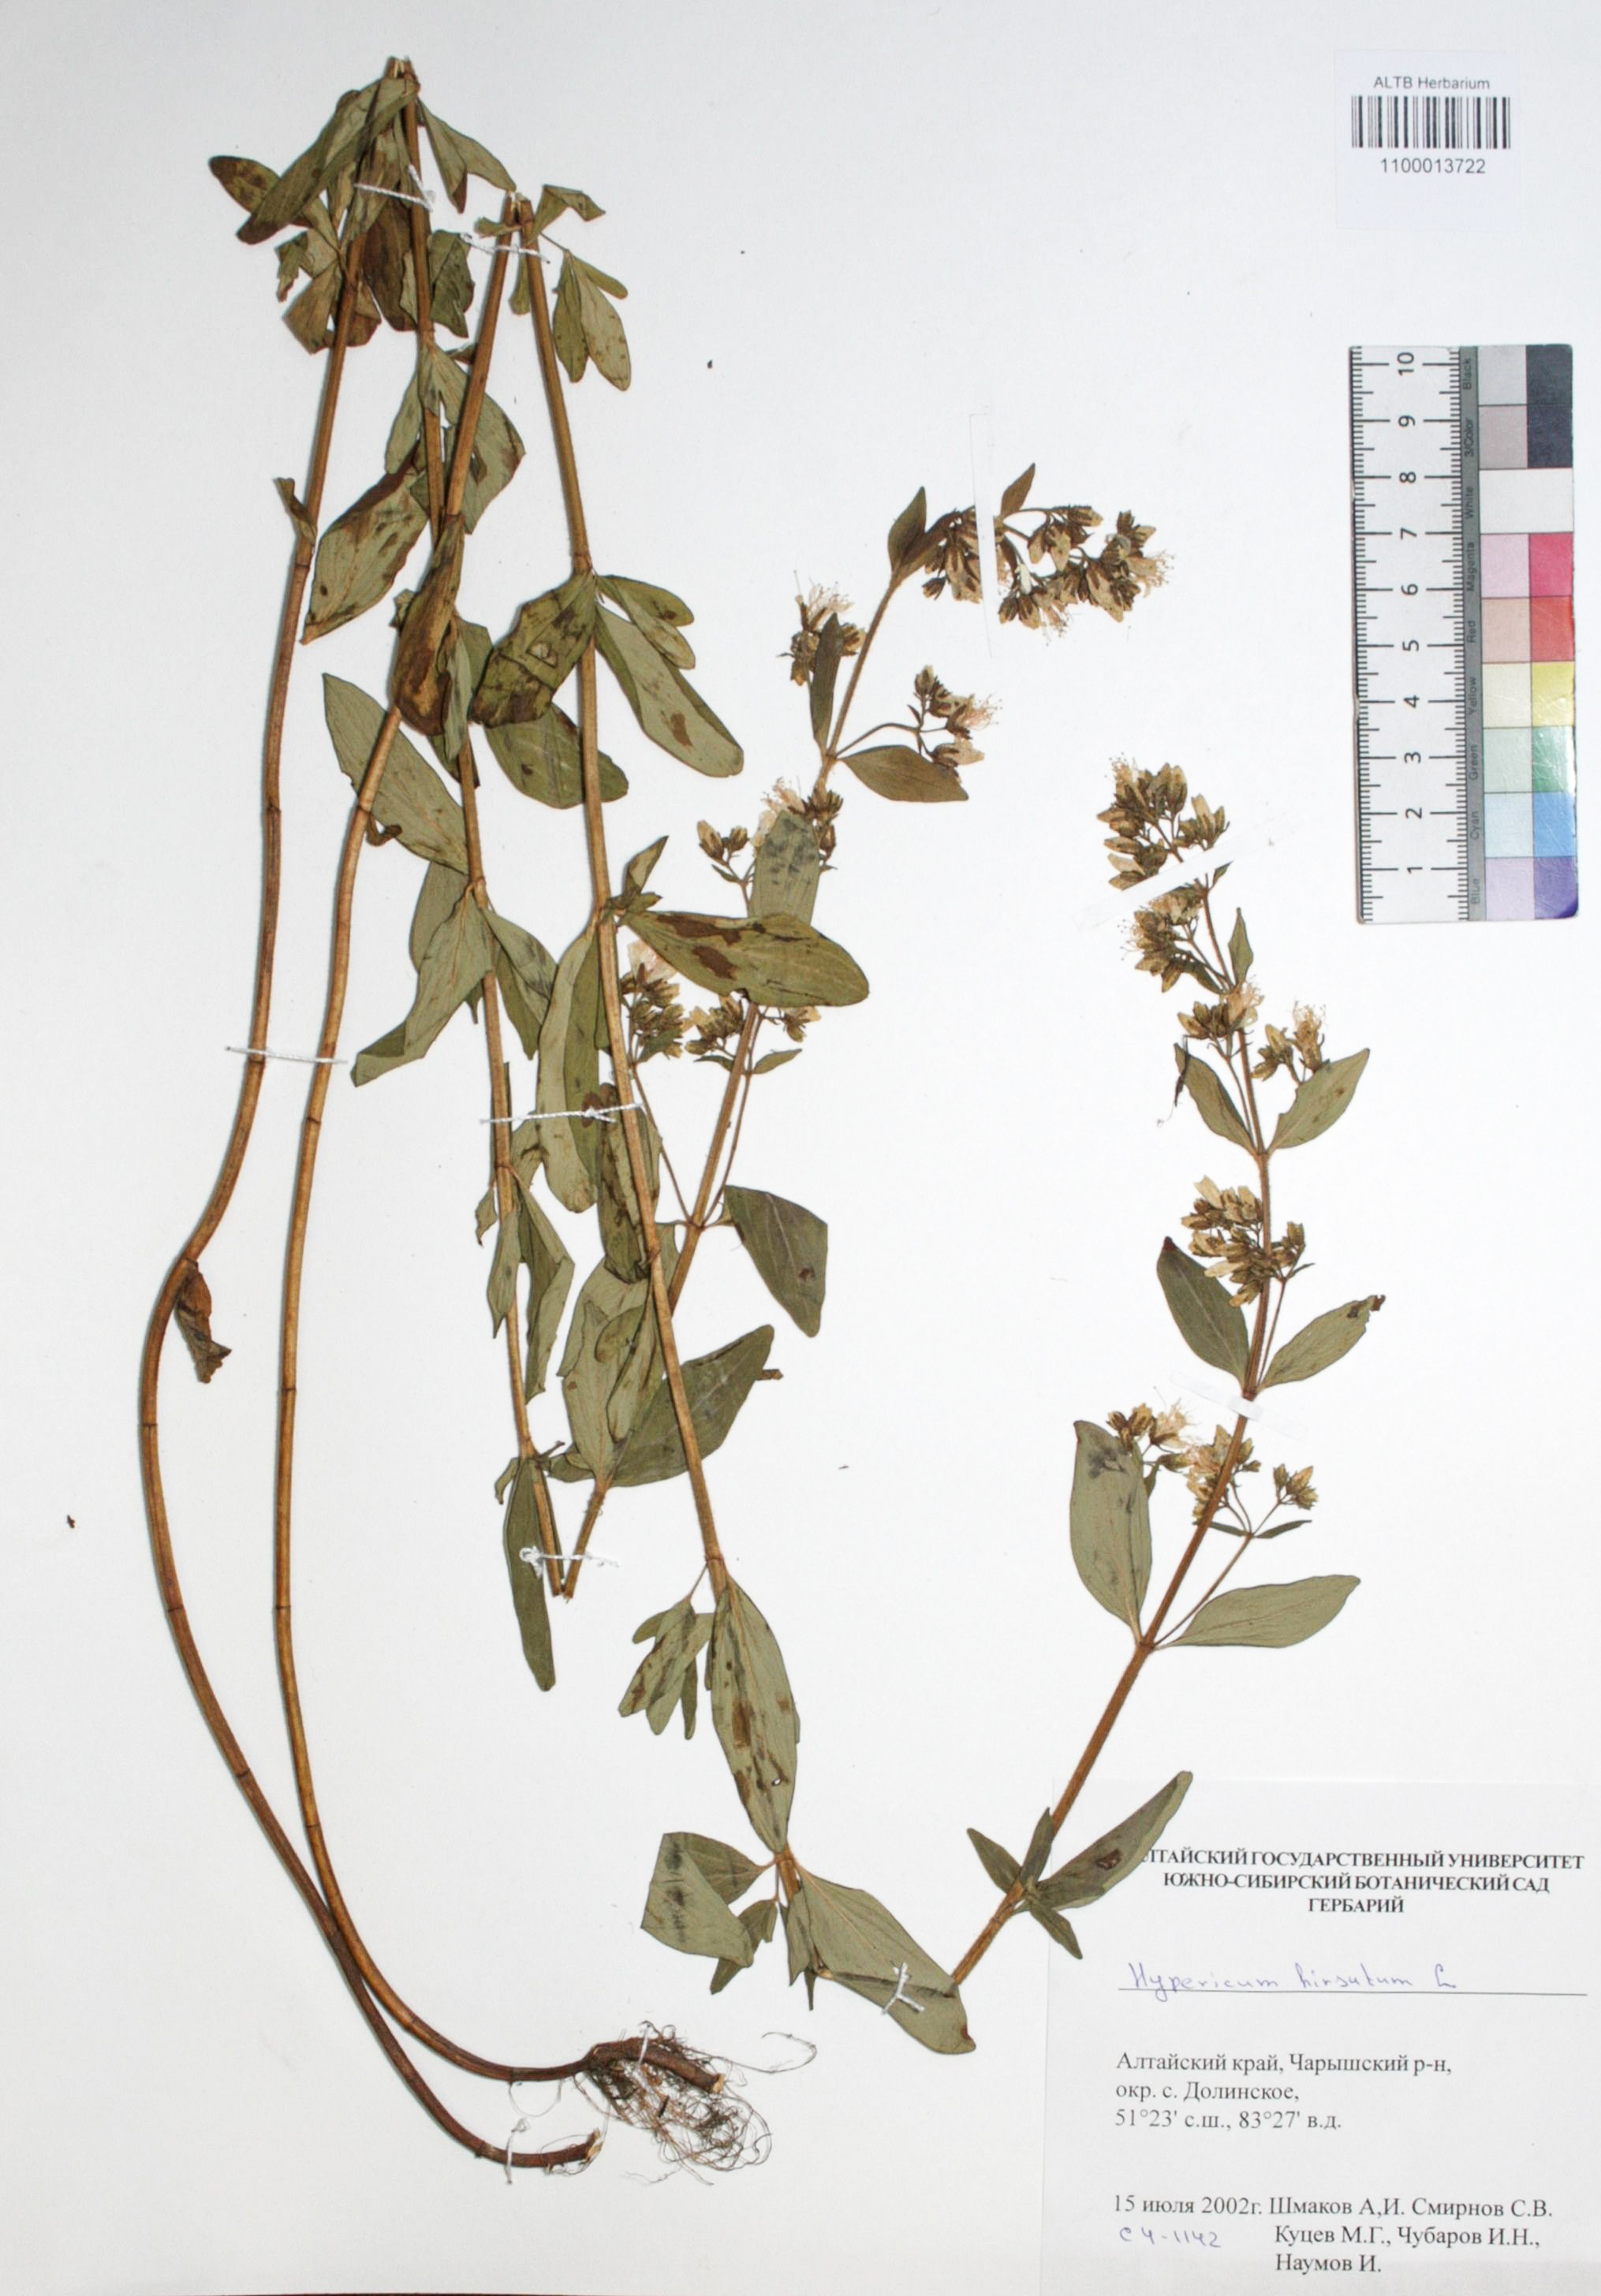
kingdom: Plantae
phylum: Tracheophyta
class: Magnoliopsida
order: Malpighiales
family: Hypericaceae
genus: Hypericum
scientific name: Hypericum hirsutum
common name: Hairy st. john's-wort
